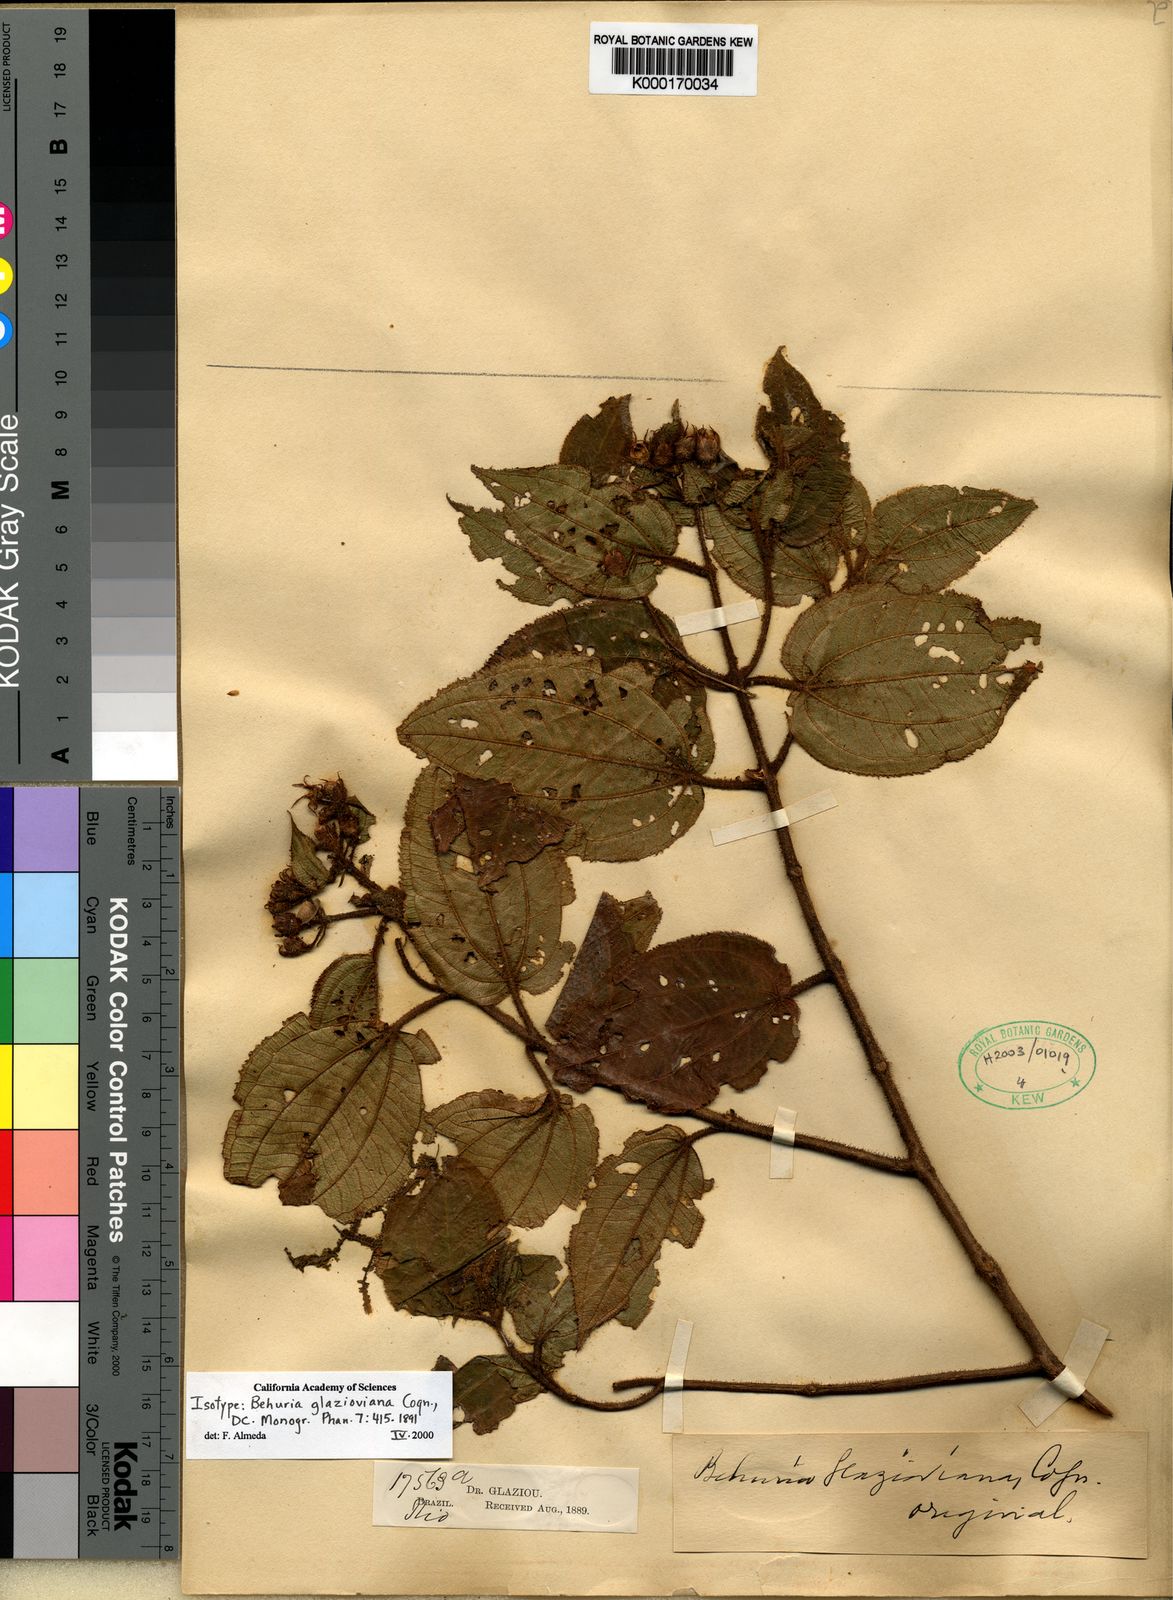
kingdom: Plantae
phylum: Tracheophyta
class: Magnoliopsida
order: Myrtales
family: Melastomataceae
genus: Huberia
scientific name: Huberia hirsuta
